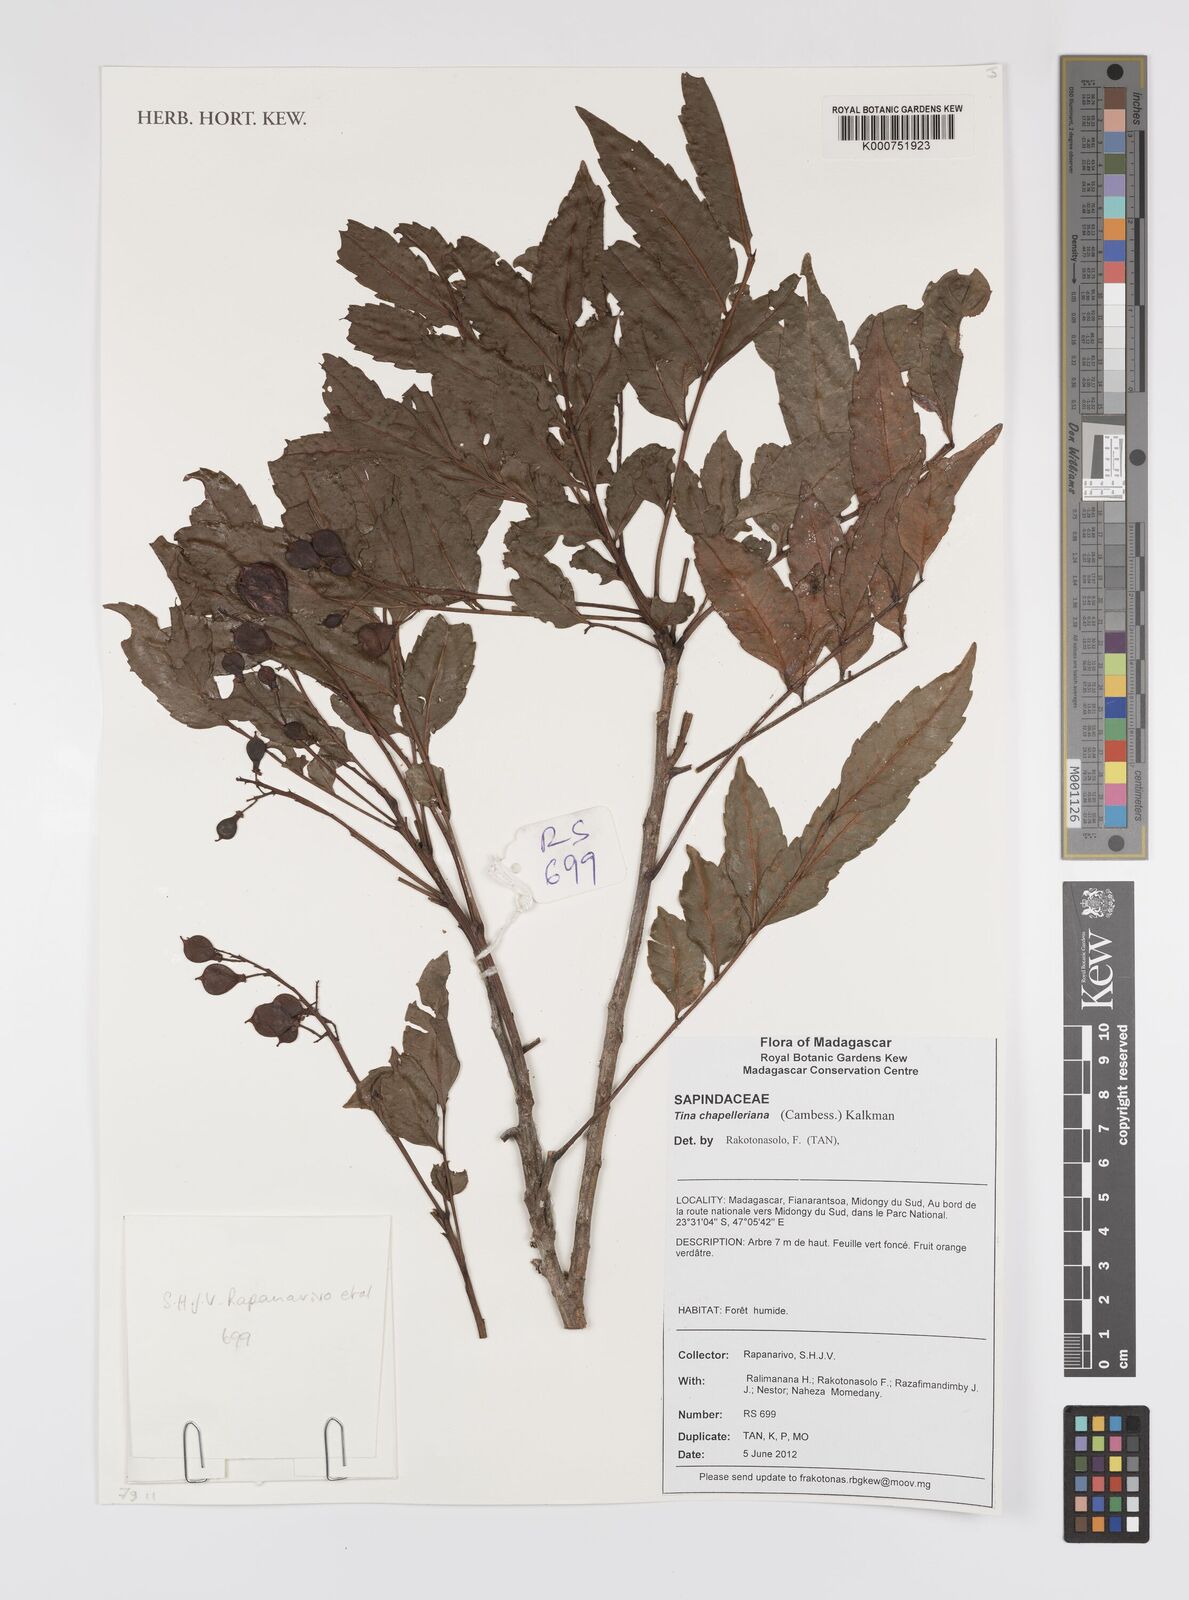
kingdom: Plantae
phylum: Tracheophyta
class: Magnoliopsida
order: Sapindales
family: Sapindaceae
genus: Tina
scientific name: Tina chapelieriana
